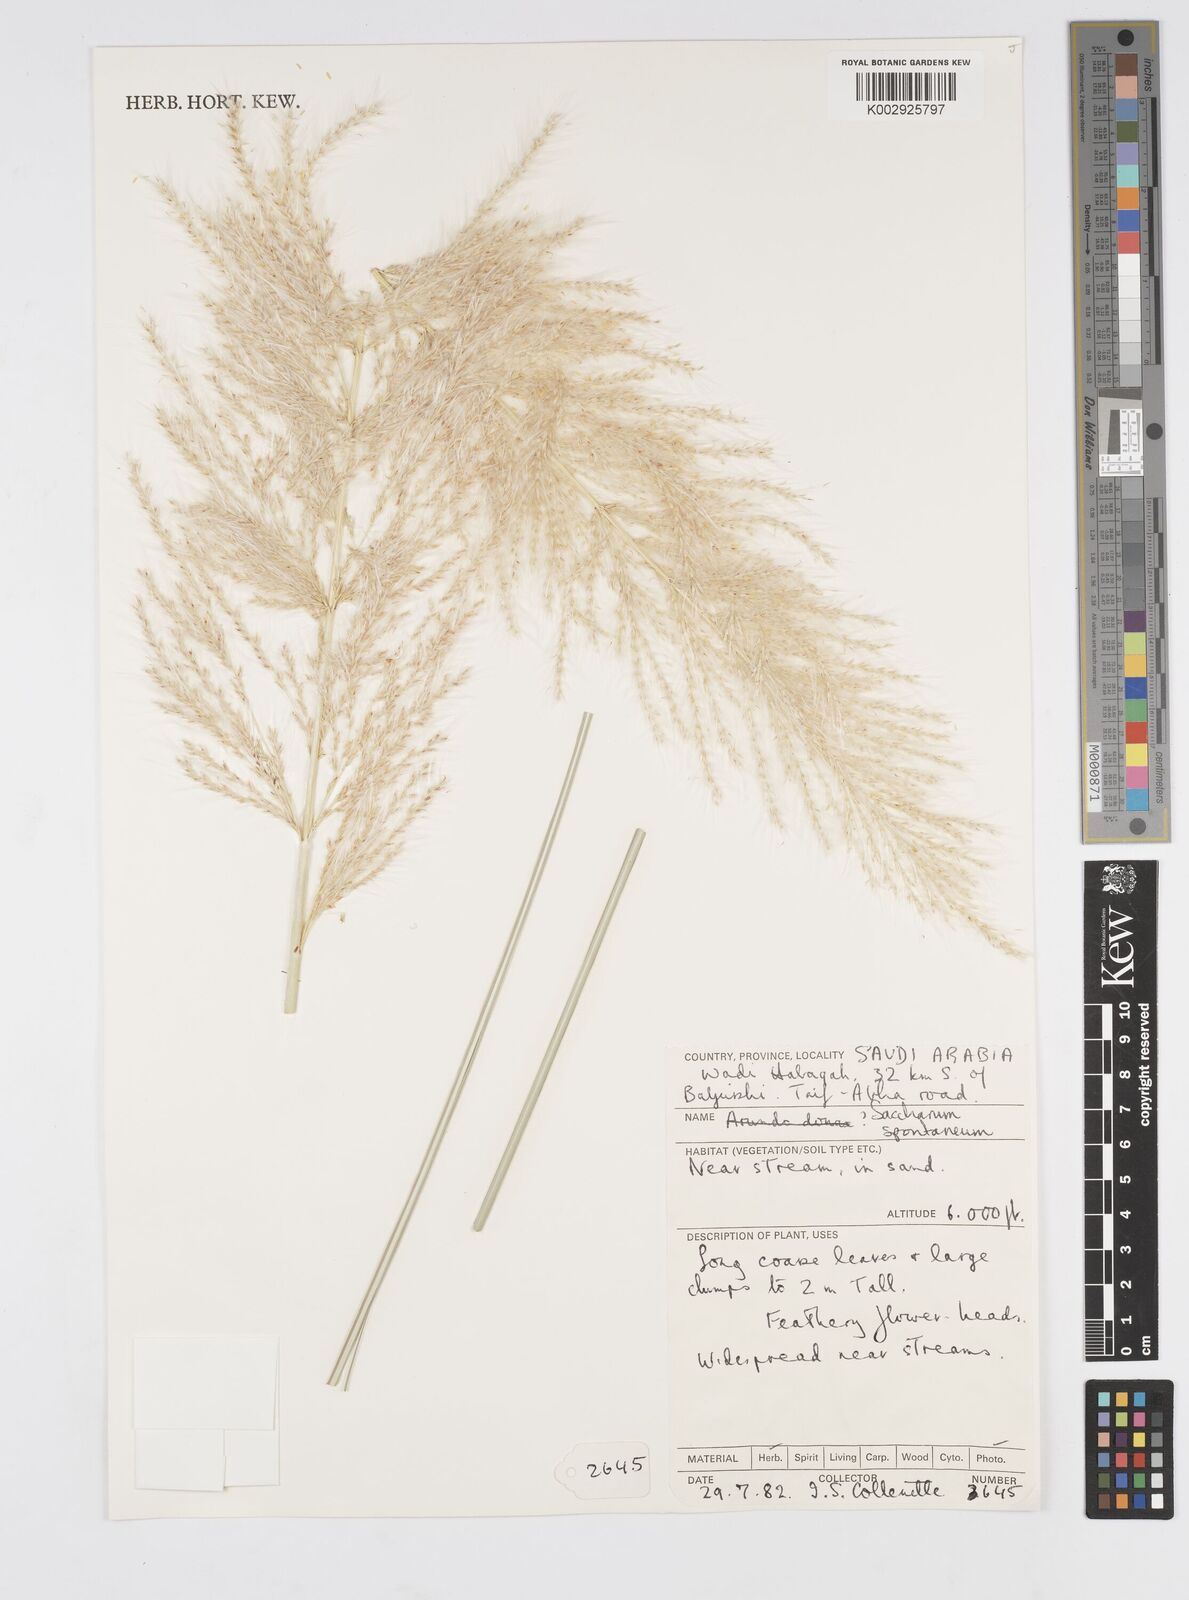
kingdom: Plantae
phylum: Tracheophyta
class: Liliopsida
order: Poales
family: Poaceae
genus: Saccharum
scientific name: Saccharum spontaneum
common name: Wild sugarcane
